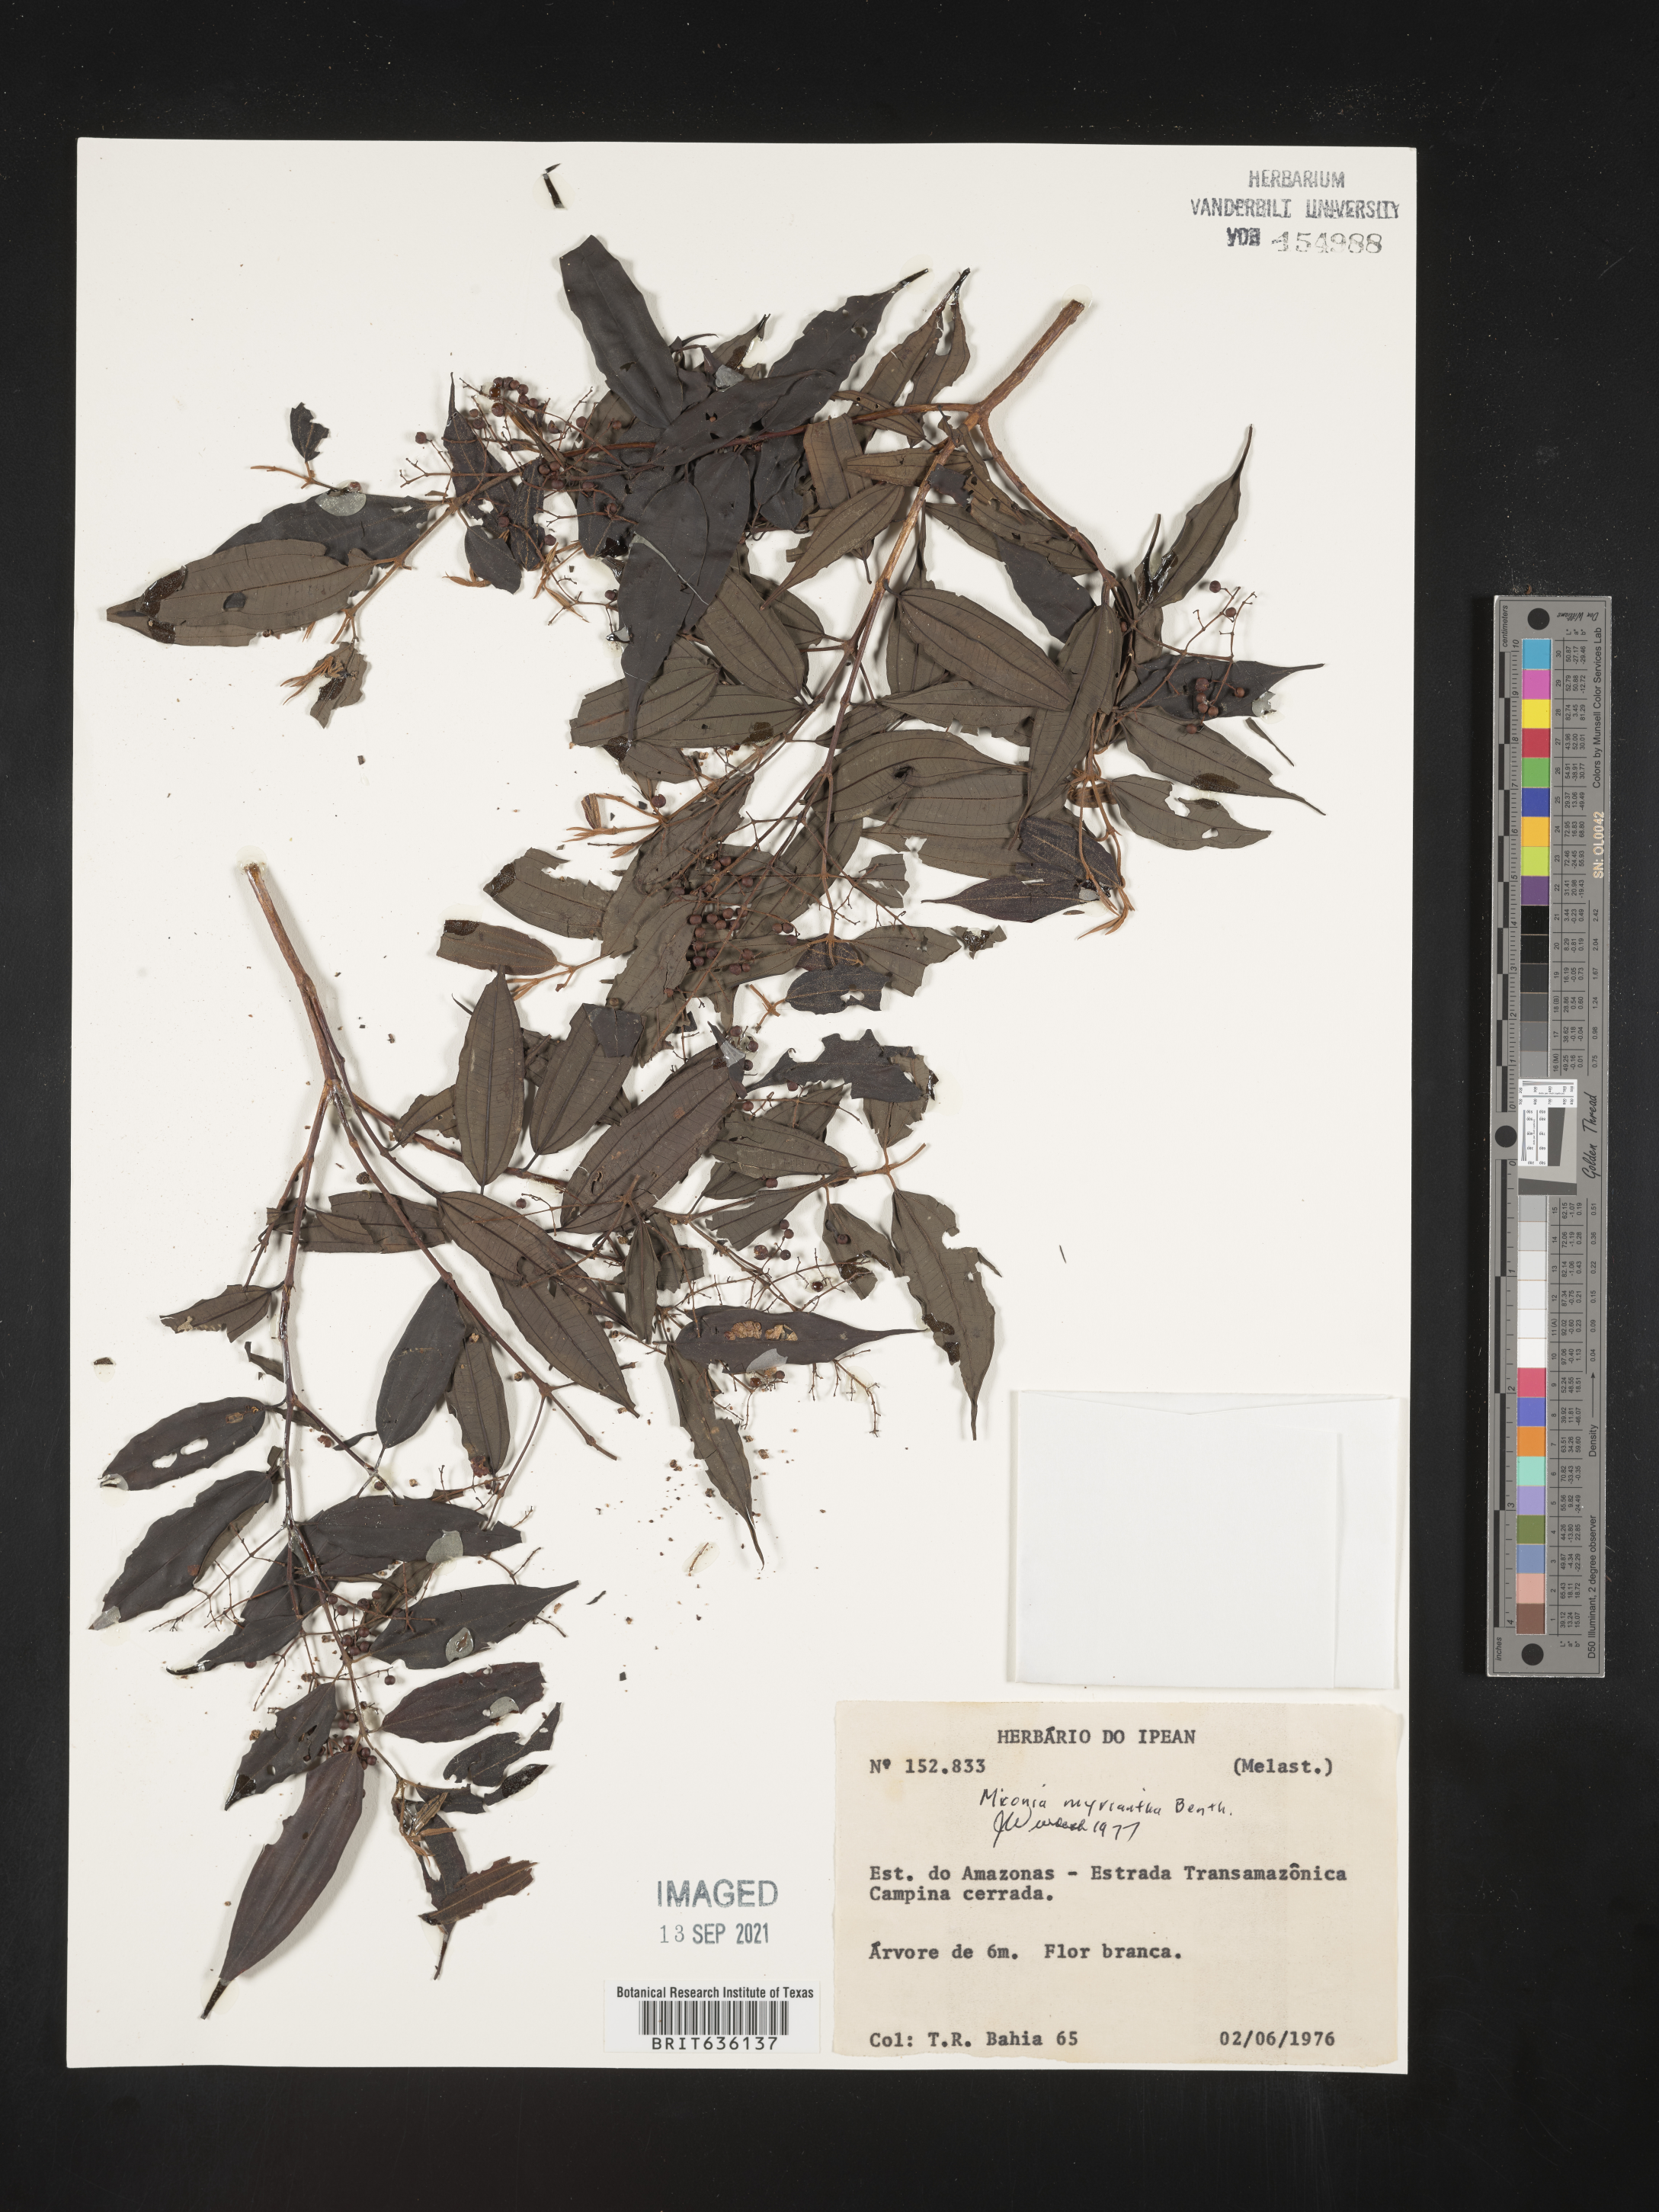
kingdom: Plantae
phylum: Tracheophyta
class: Magnoliopsida
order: Myrtales
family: Melastomataceae
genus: Miconia
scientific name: Miconia
